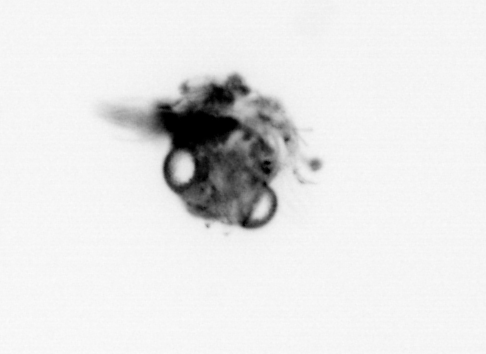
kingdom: Animalia
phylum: Arthropoda
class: Malacostraca
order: Decapoda
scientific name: Decapoda
